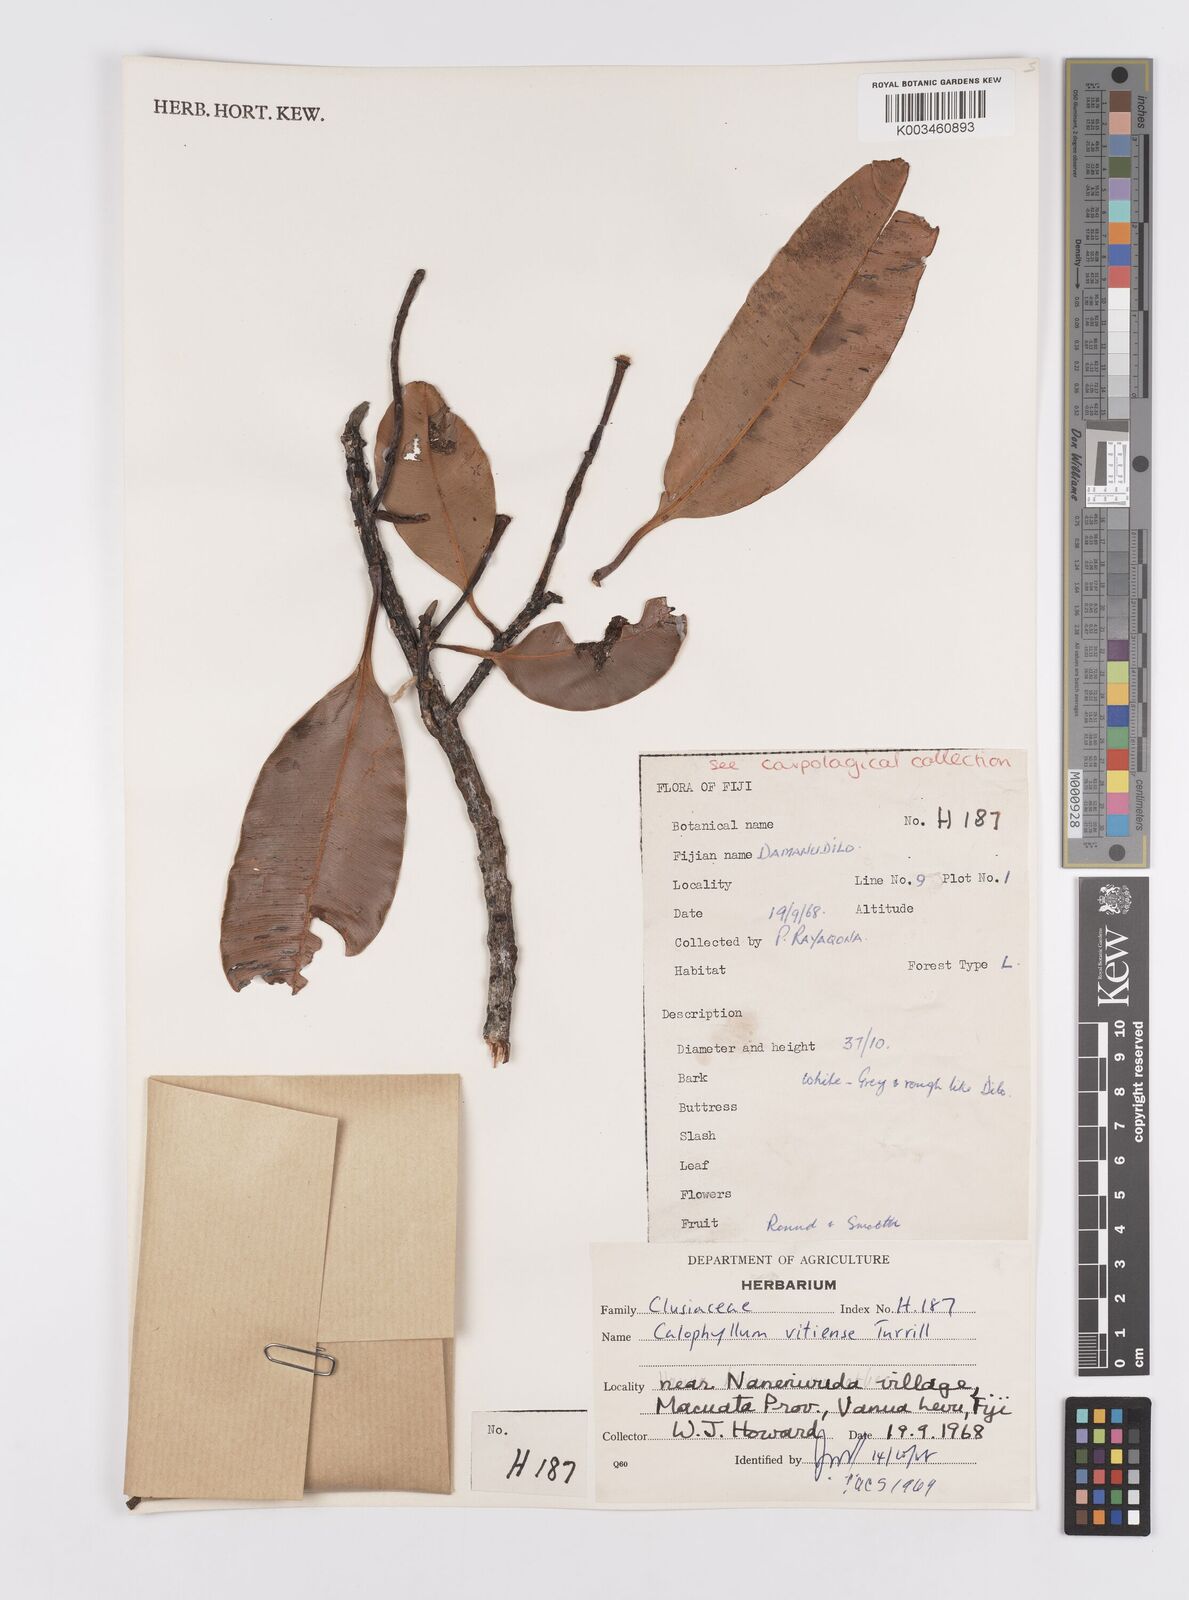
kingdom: Plantae
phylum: Tracheophyta
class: Magnoliopsida
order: Malpighiales
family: Calophyllaceae
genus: Calophyllum
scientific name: Calophyllum vitiense
